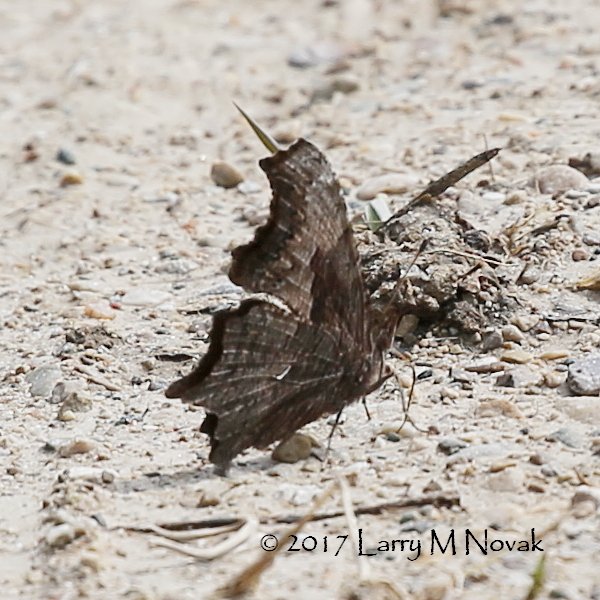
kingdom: Animalia
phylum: Arthropoda
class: Insecta
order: Lepidoptera
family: Nymphalidae
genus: Polygonia
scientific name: Polygonia progne
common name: Gray Comma
